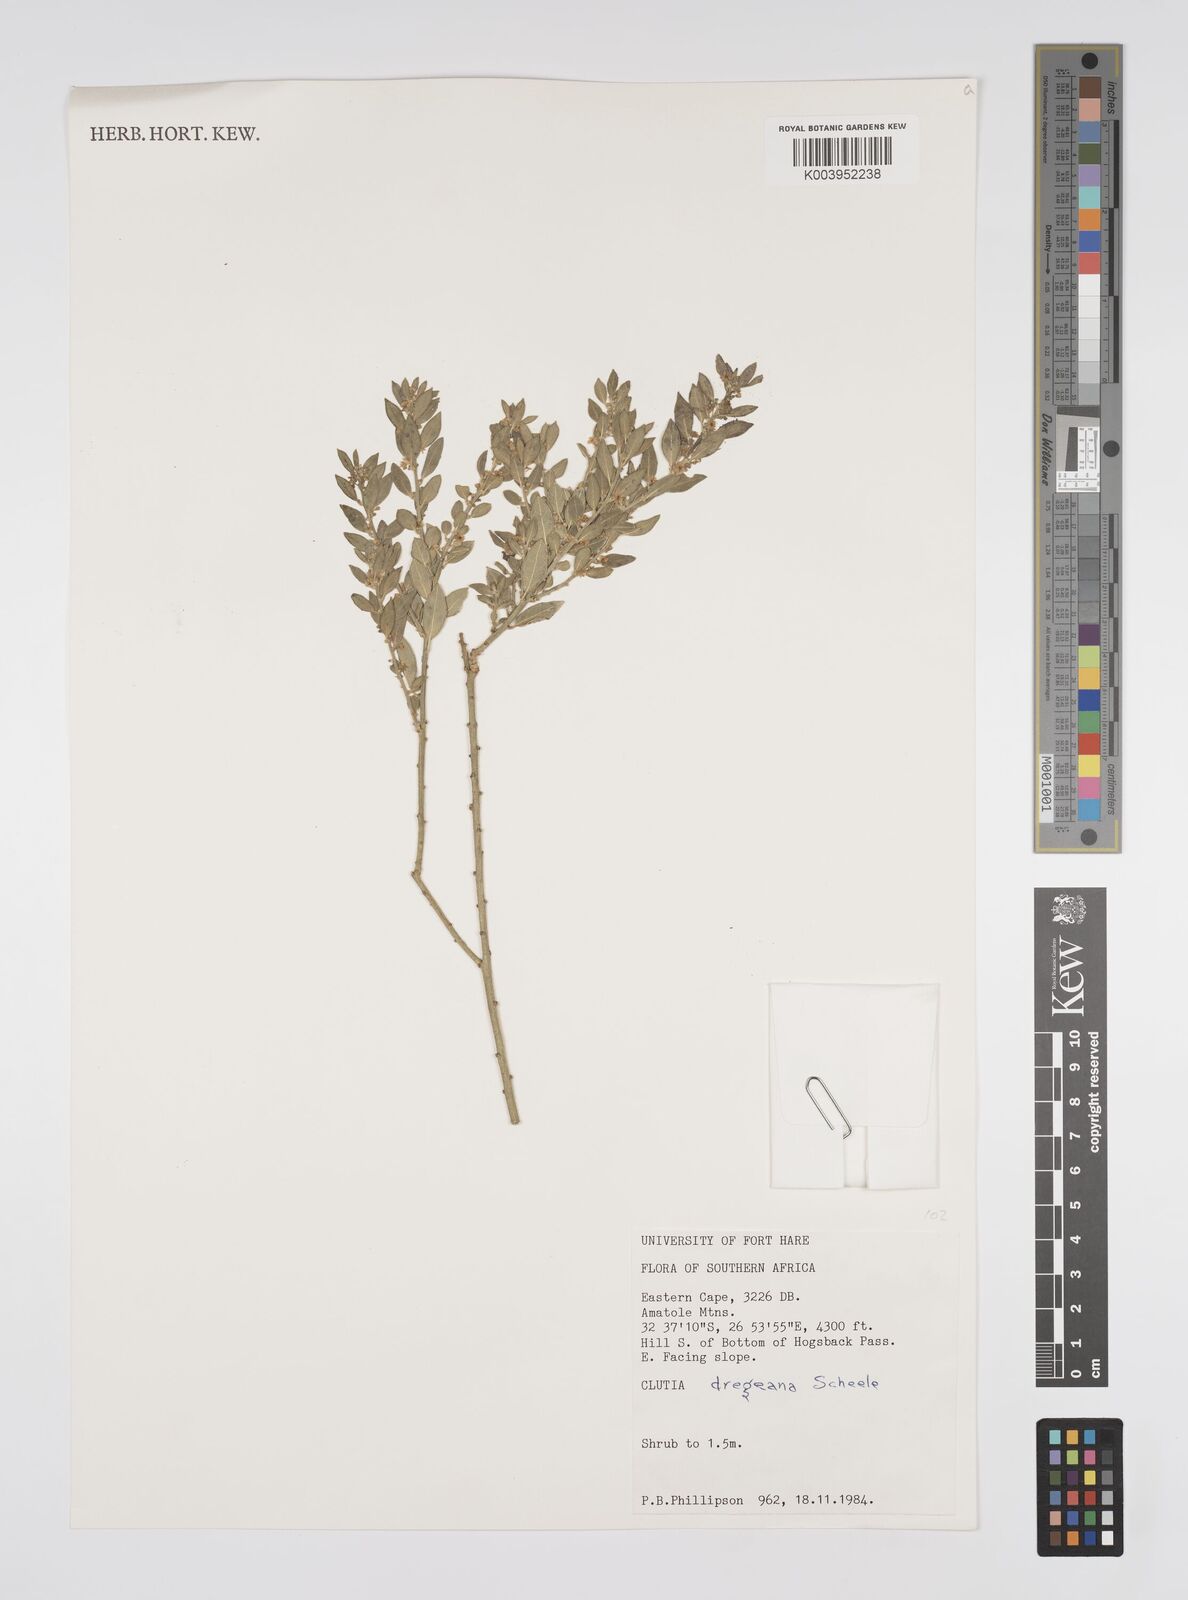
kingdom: Plantae
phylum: Tracheophyta
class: Magnoliopsida
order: Malpighiales
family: Peraceae
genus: Clutia
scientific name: Clutia dregeana
